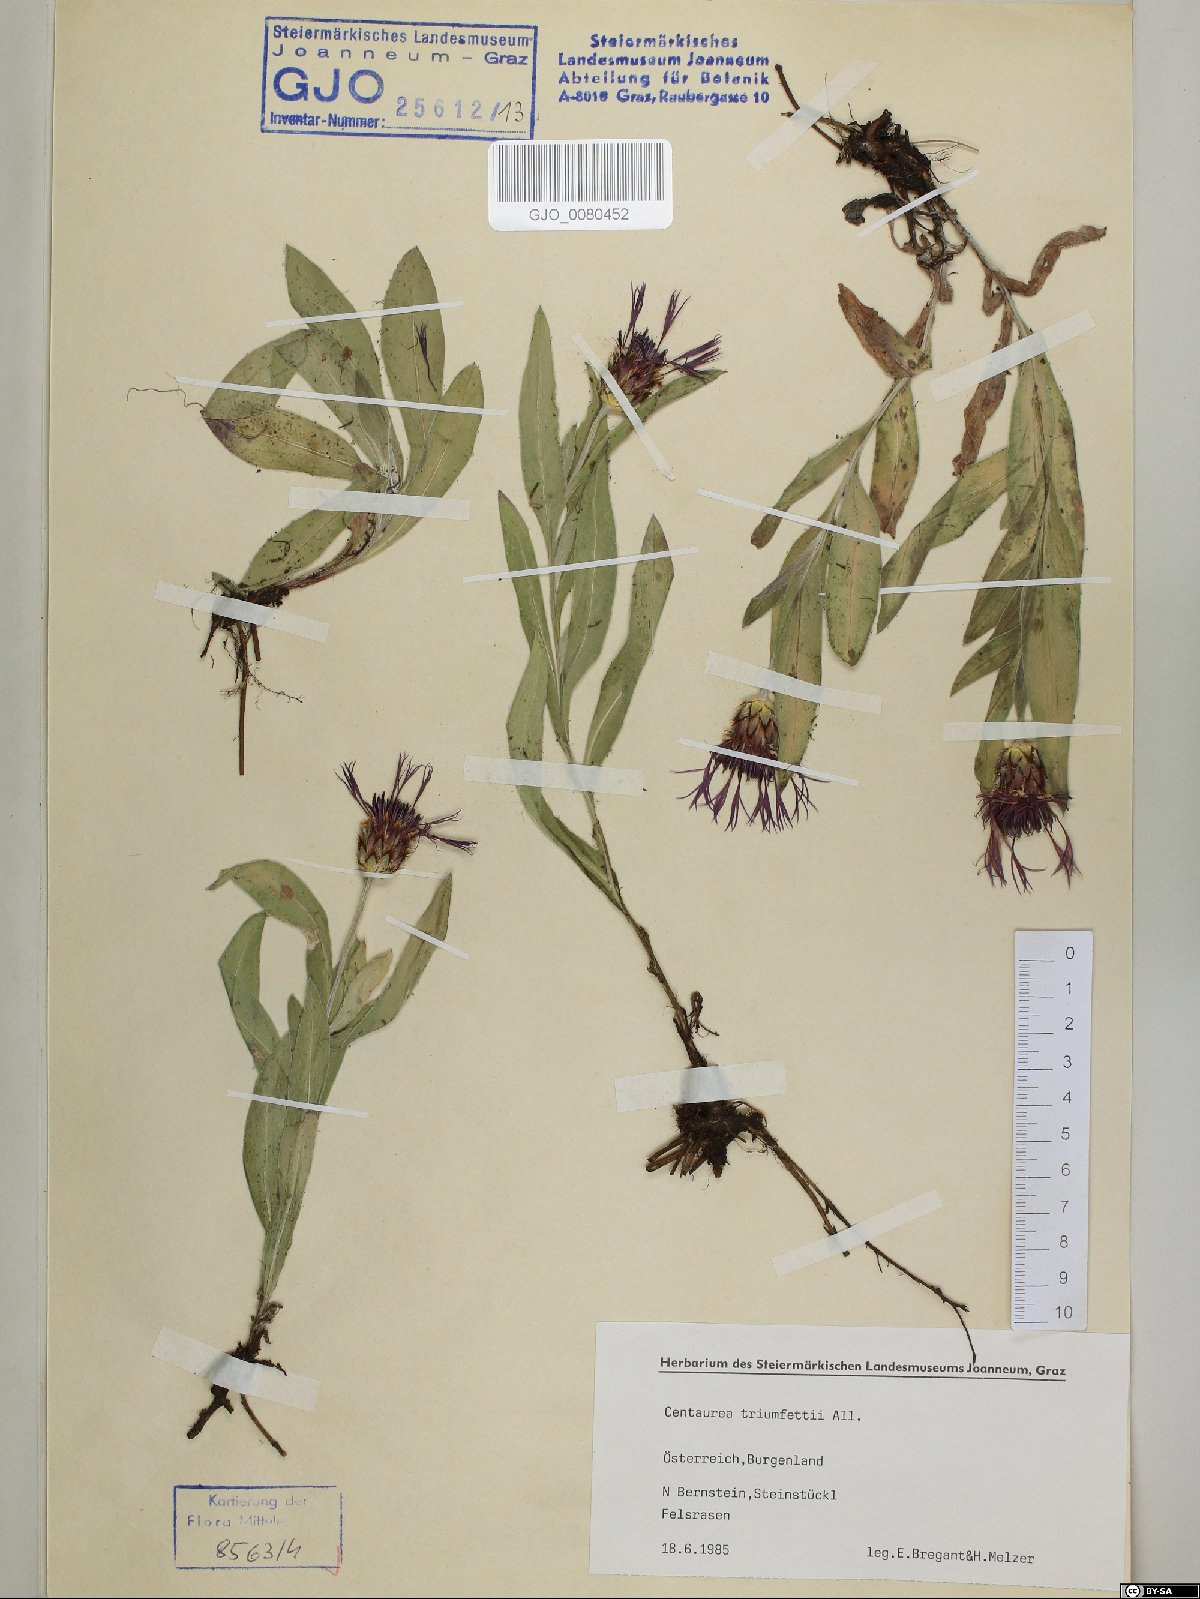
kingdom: Plantae
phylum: Tracheophyta
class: Magnoliopsida
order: Asterales
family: Asteraceae
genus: Centaurea
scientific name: Centaurea triumfettii
